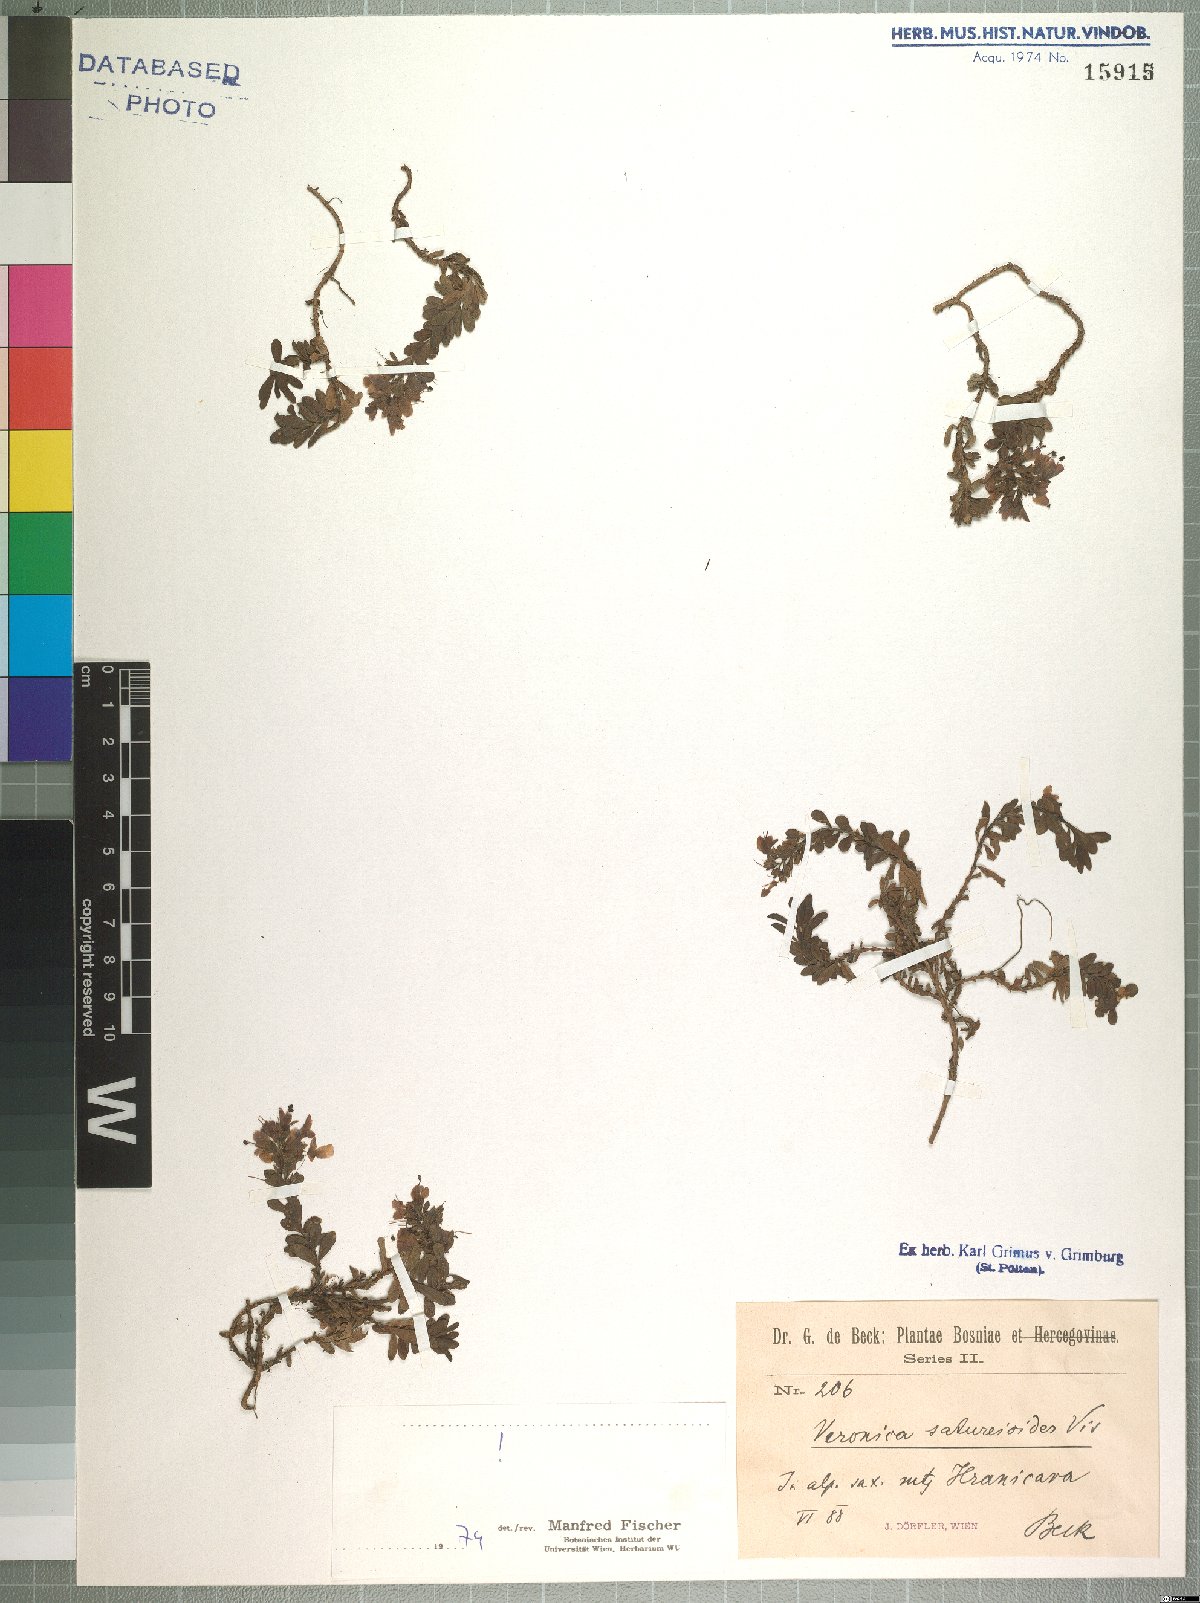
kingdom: Plantae
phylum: Tracheophyta
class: Magnoliopsida
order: Lamiales
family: Plantaginaceae
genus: Veronica
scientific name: Veronica saturejoides
